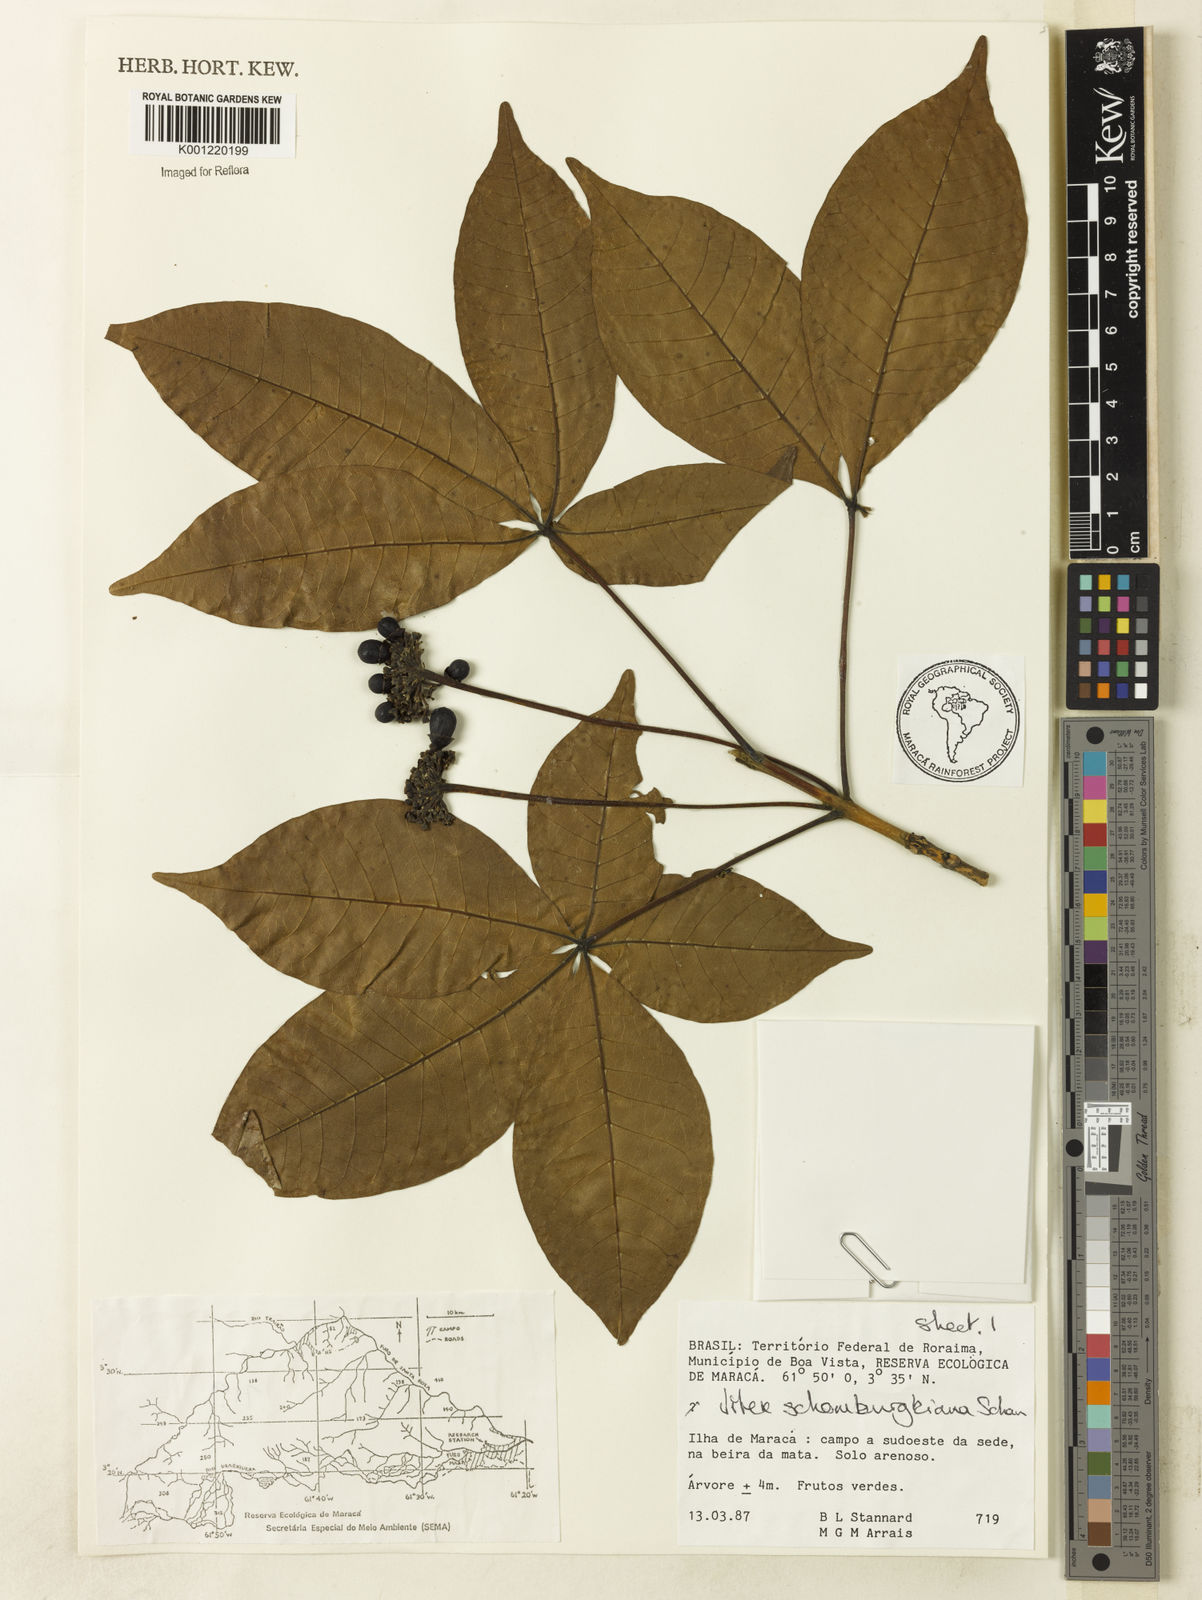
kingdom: Plantae
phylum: Tracheophyta
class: Magnoliopsida
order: Lamiales
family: Lamiaceae
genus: Vitex
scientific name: Vitex schomburgkiana
